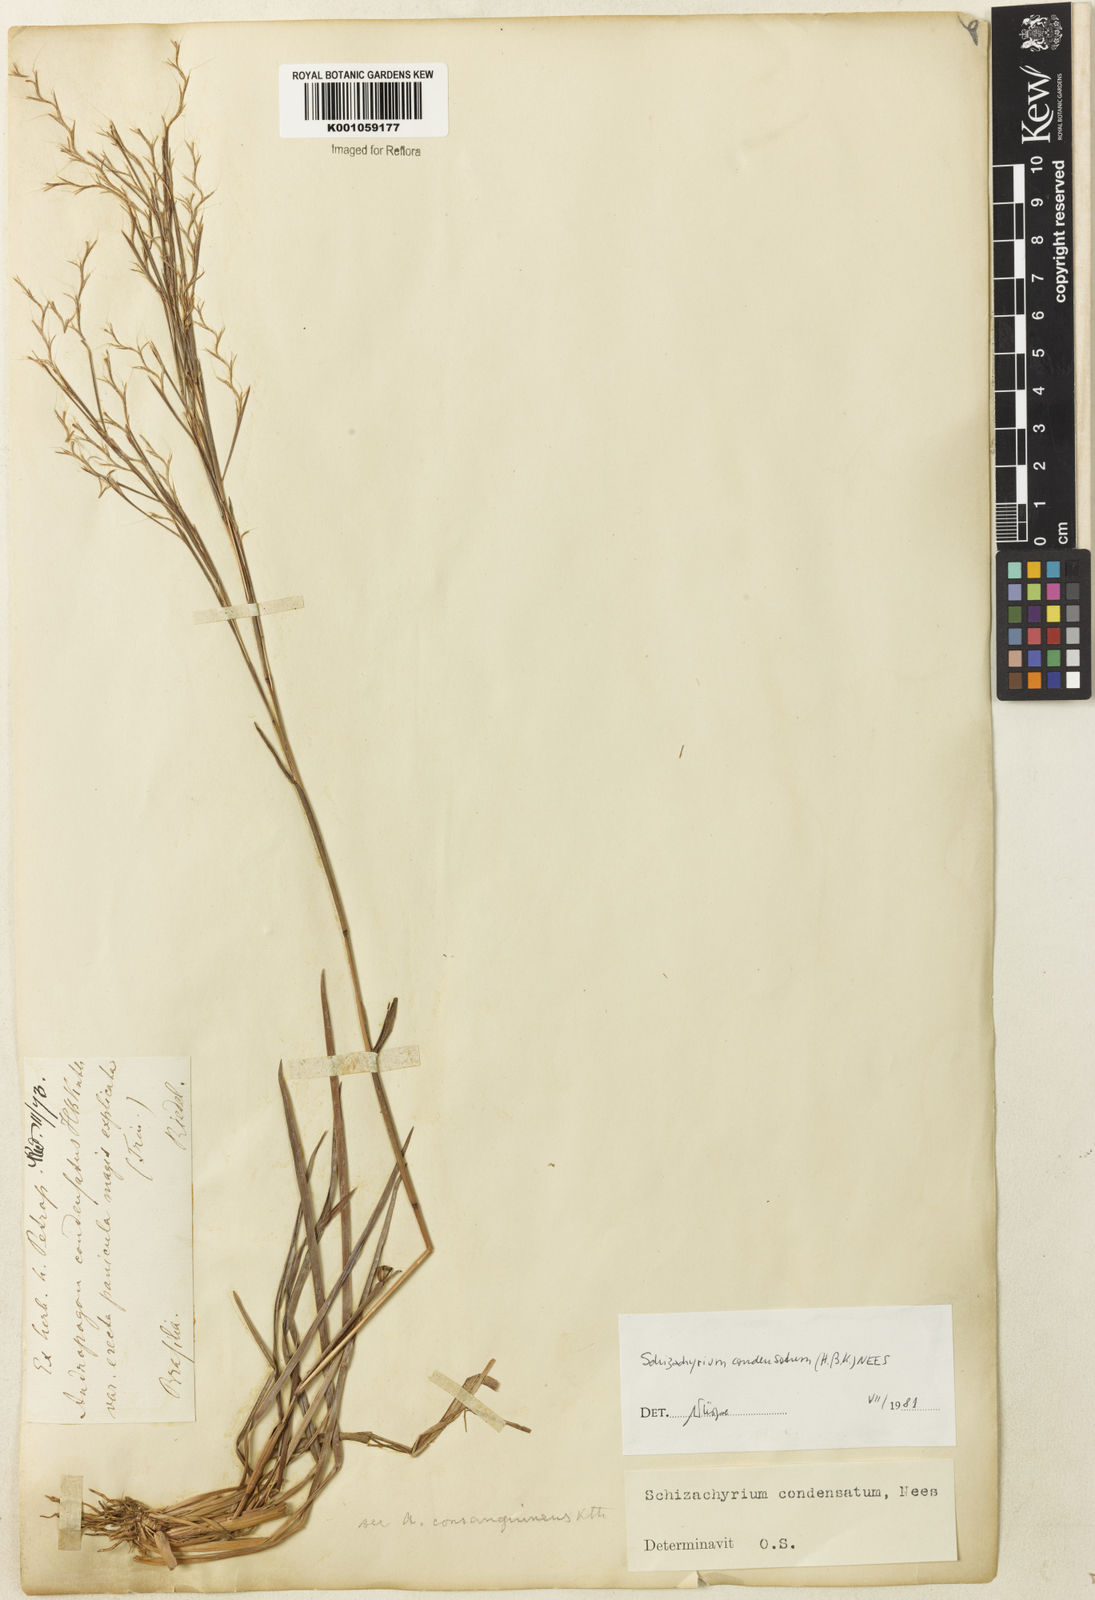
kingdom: Plantae
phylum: Tracheophyta
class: Liliopsida
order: Poales
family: Poaceae
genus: Schizachyrium
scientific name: Schizachyrium condensatum
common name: Bush beardgrass
